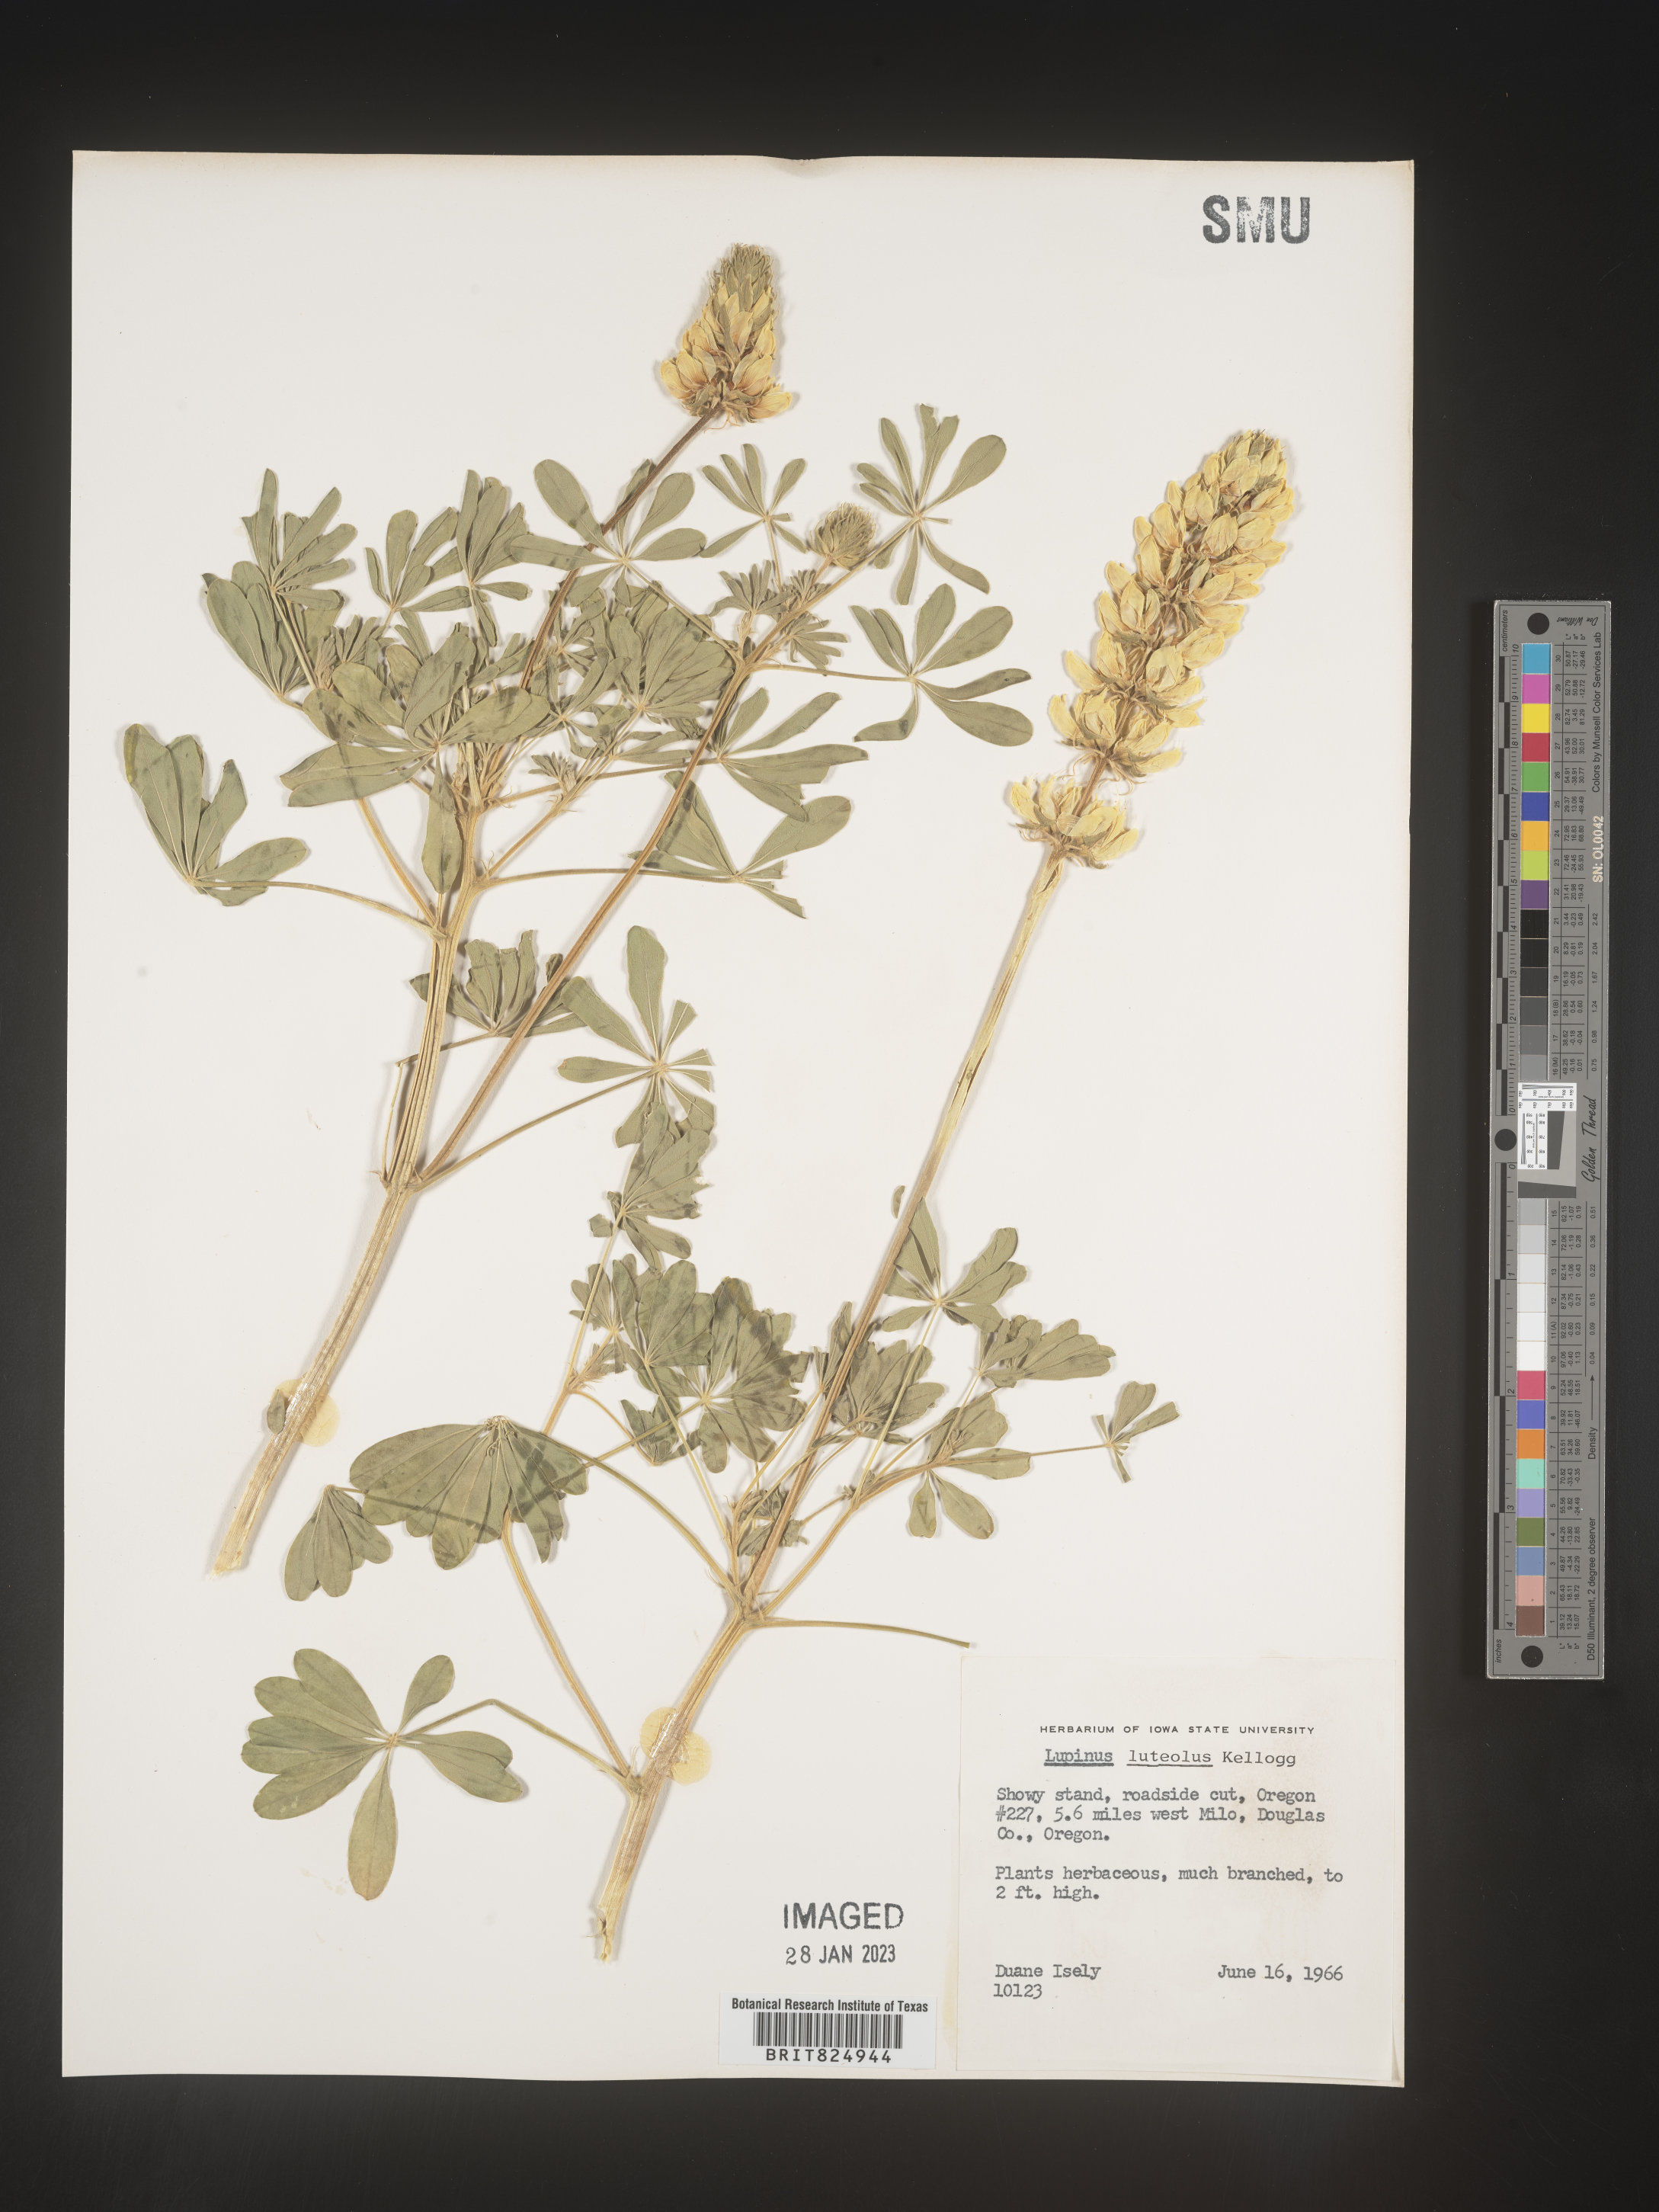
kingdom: Plantae
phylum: Tracheophyta
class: Magnoliopsida
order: Fabales
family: Fabaceae
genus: Lupinus
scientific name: Lupinus
